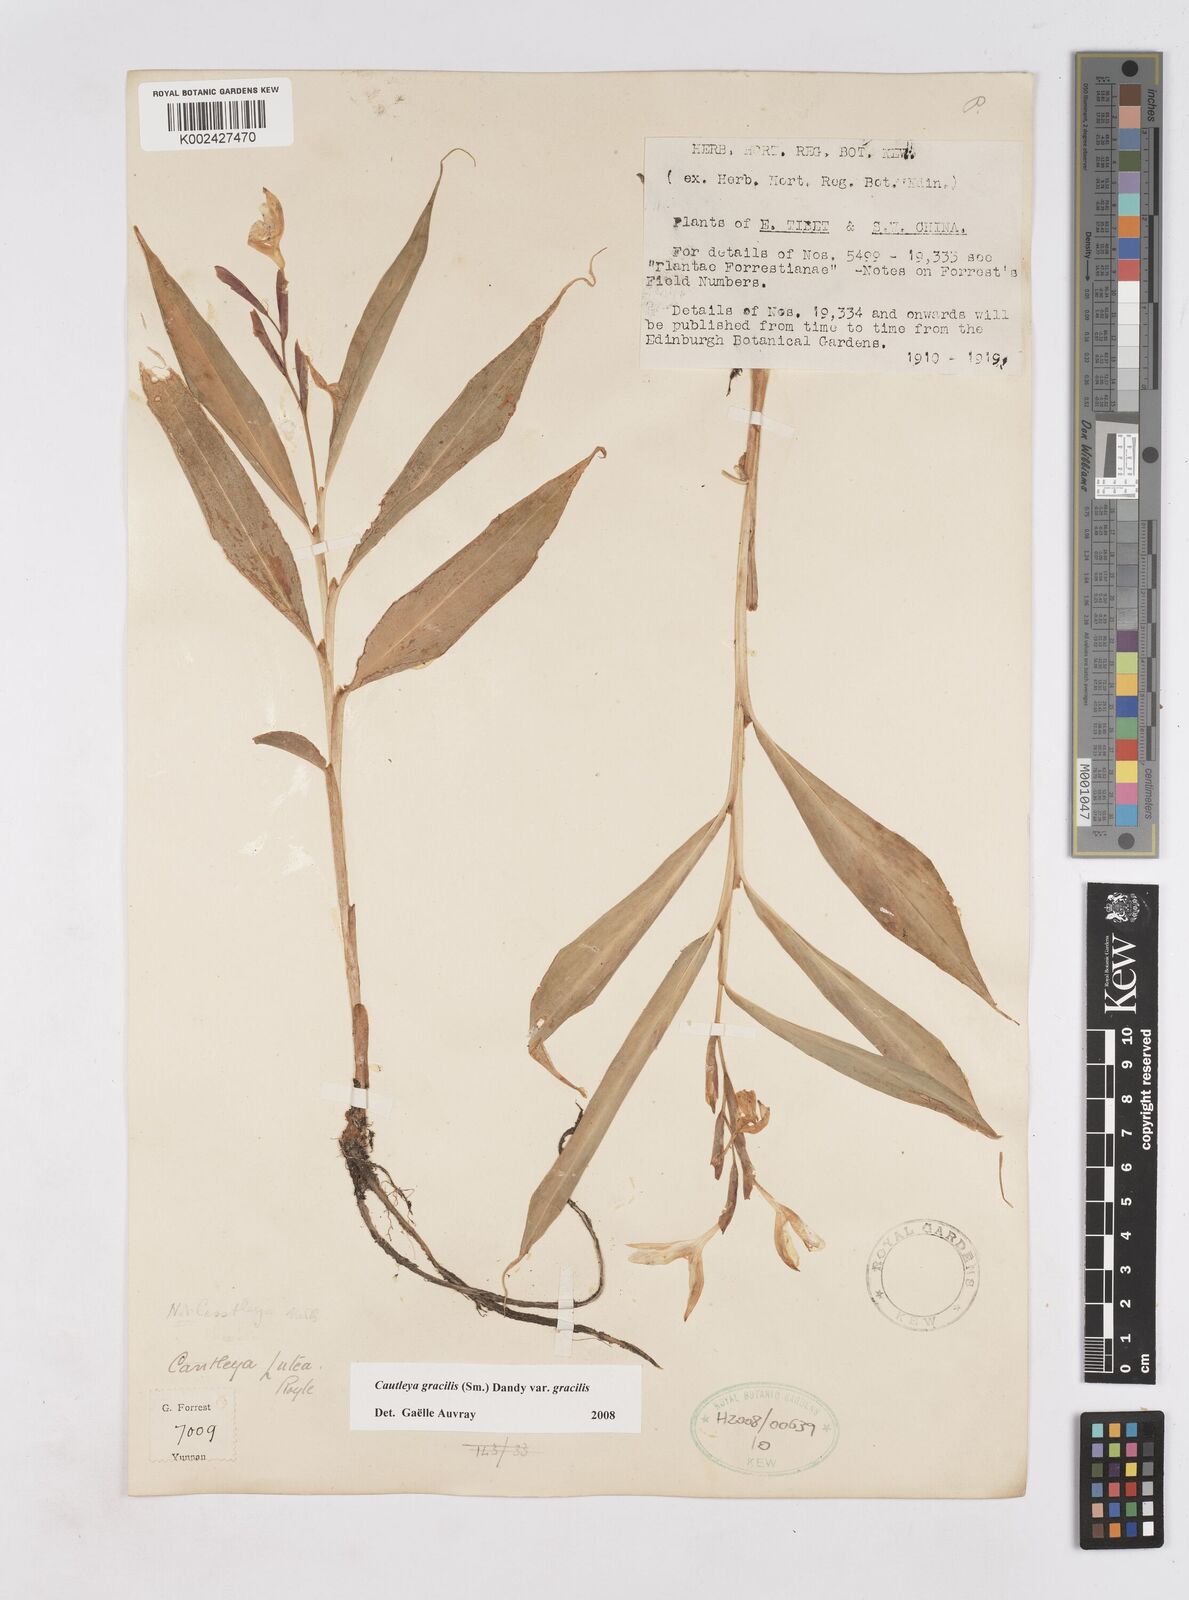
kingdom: Plantae
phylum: Tracheophyta
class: Liliopsida
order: Zingiberales
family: Zingiberaceae
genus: Cautleya
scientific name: Cautleya gracilis
